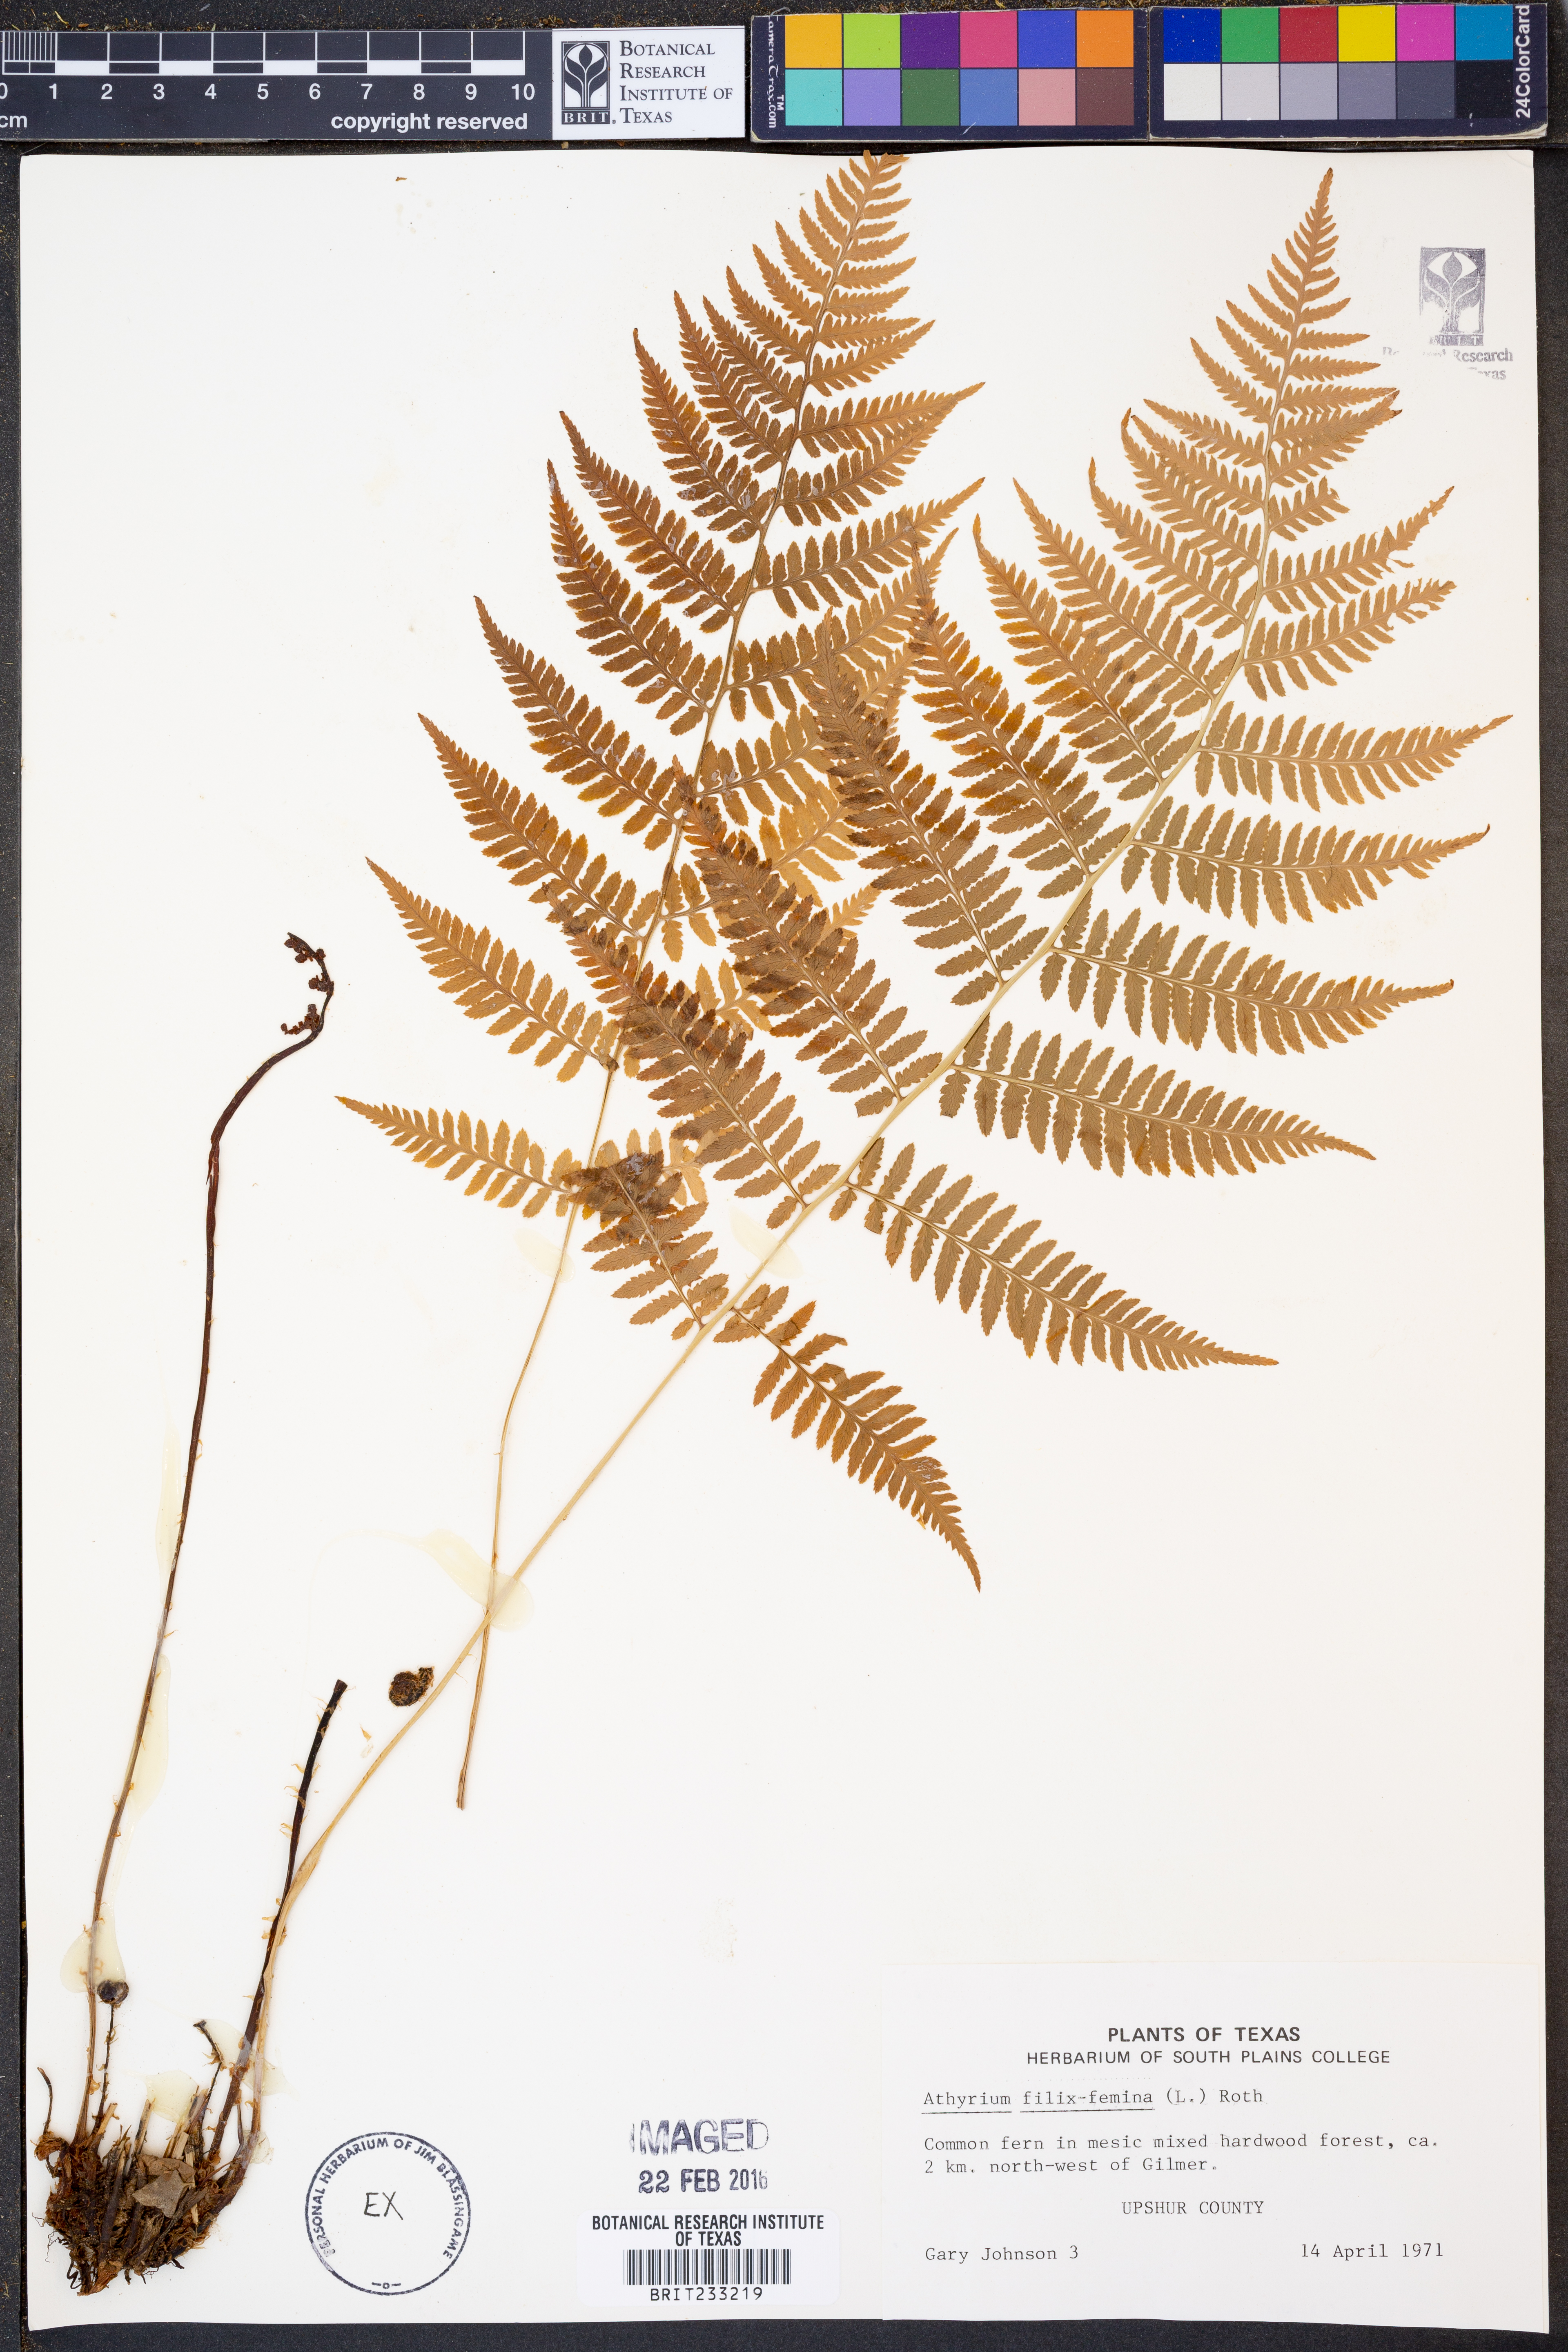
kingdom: Plantae
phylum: Tracheophyta
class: Polypodiopsida
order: Polypodiales
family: Athyriaceae
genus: Athyrium
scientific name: Athyrium filix-femina
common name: Lady fern
